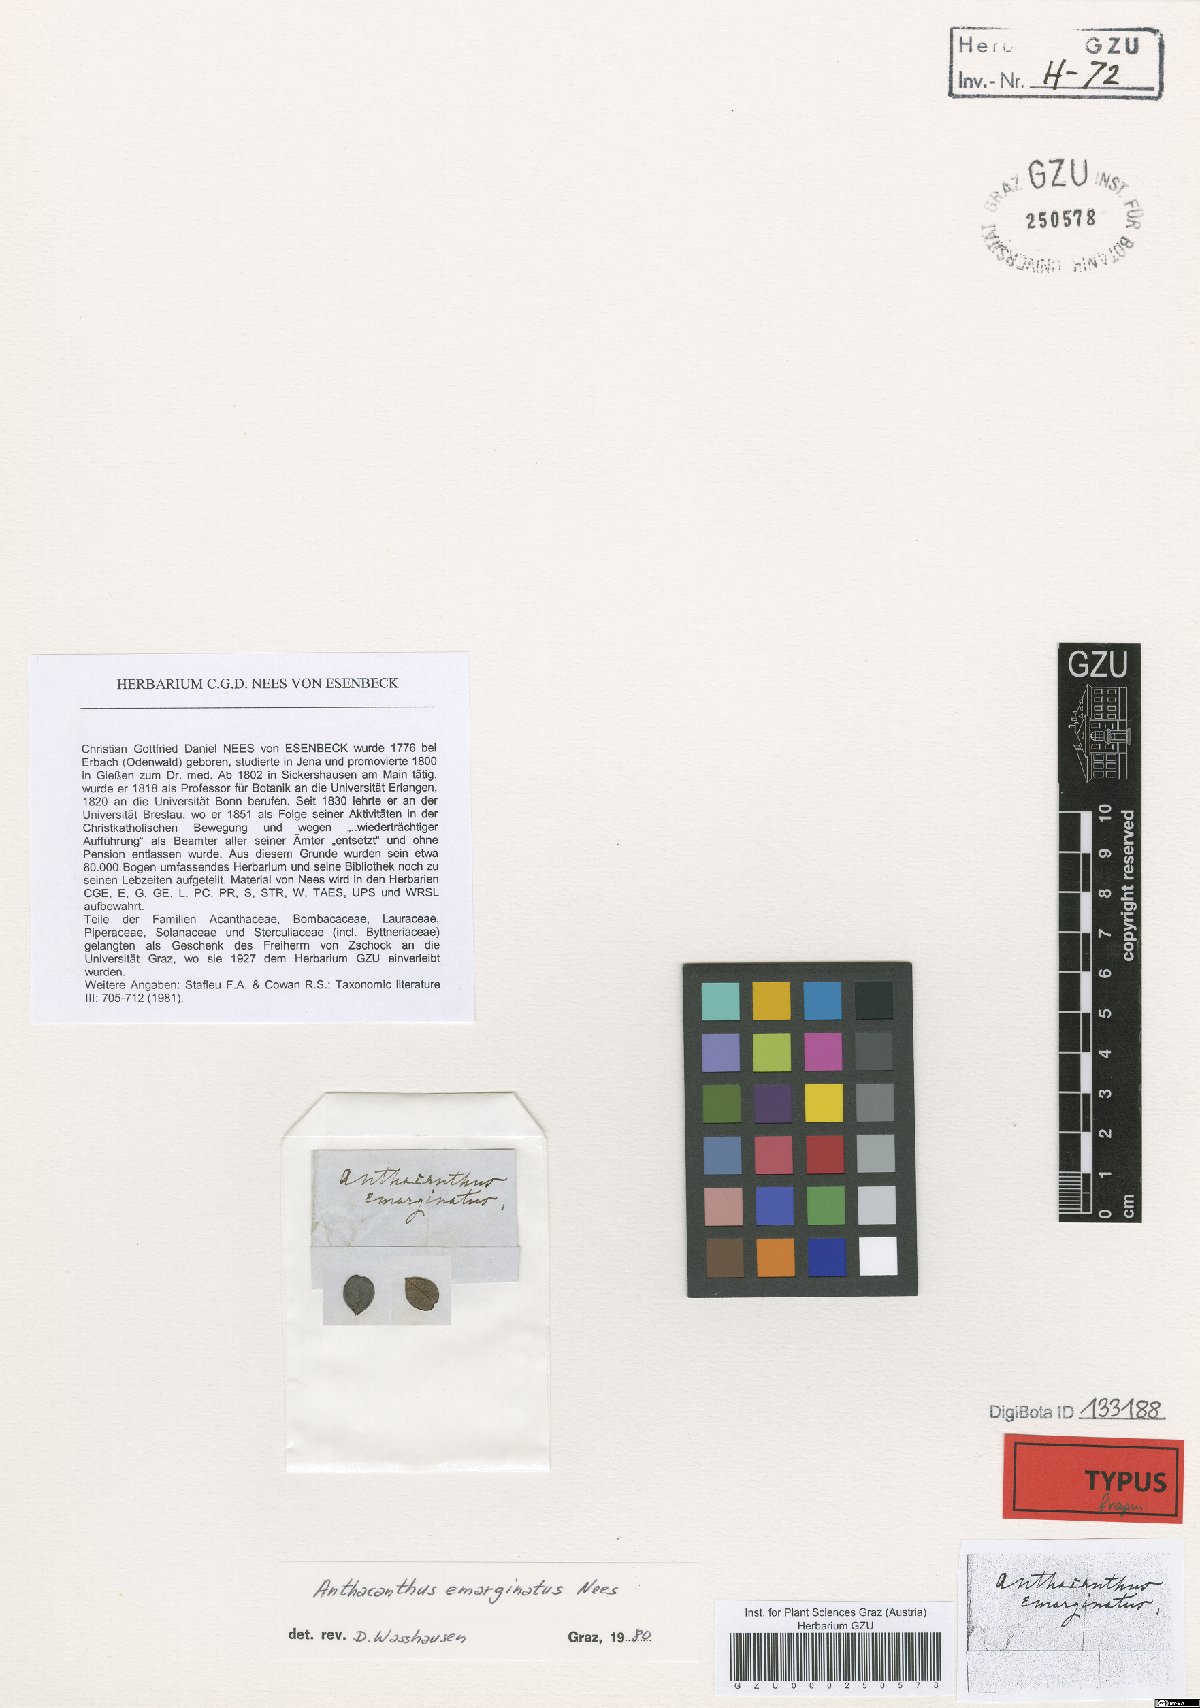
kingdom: Plantae
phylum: Tracheophyta
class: Magnoliopsida
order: Lamiales
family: Acanthaceae
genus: Oplonia
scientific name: Oplonia spinosa
